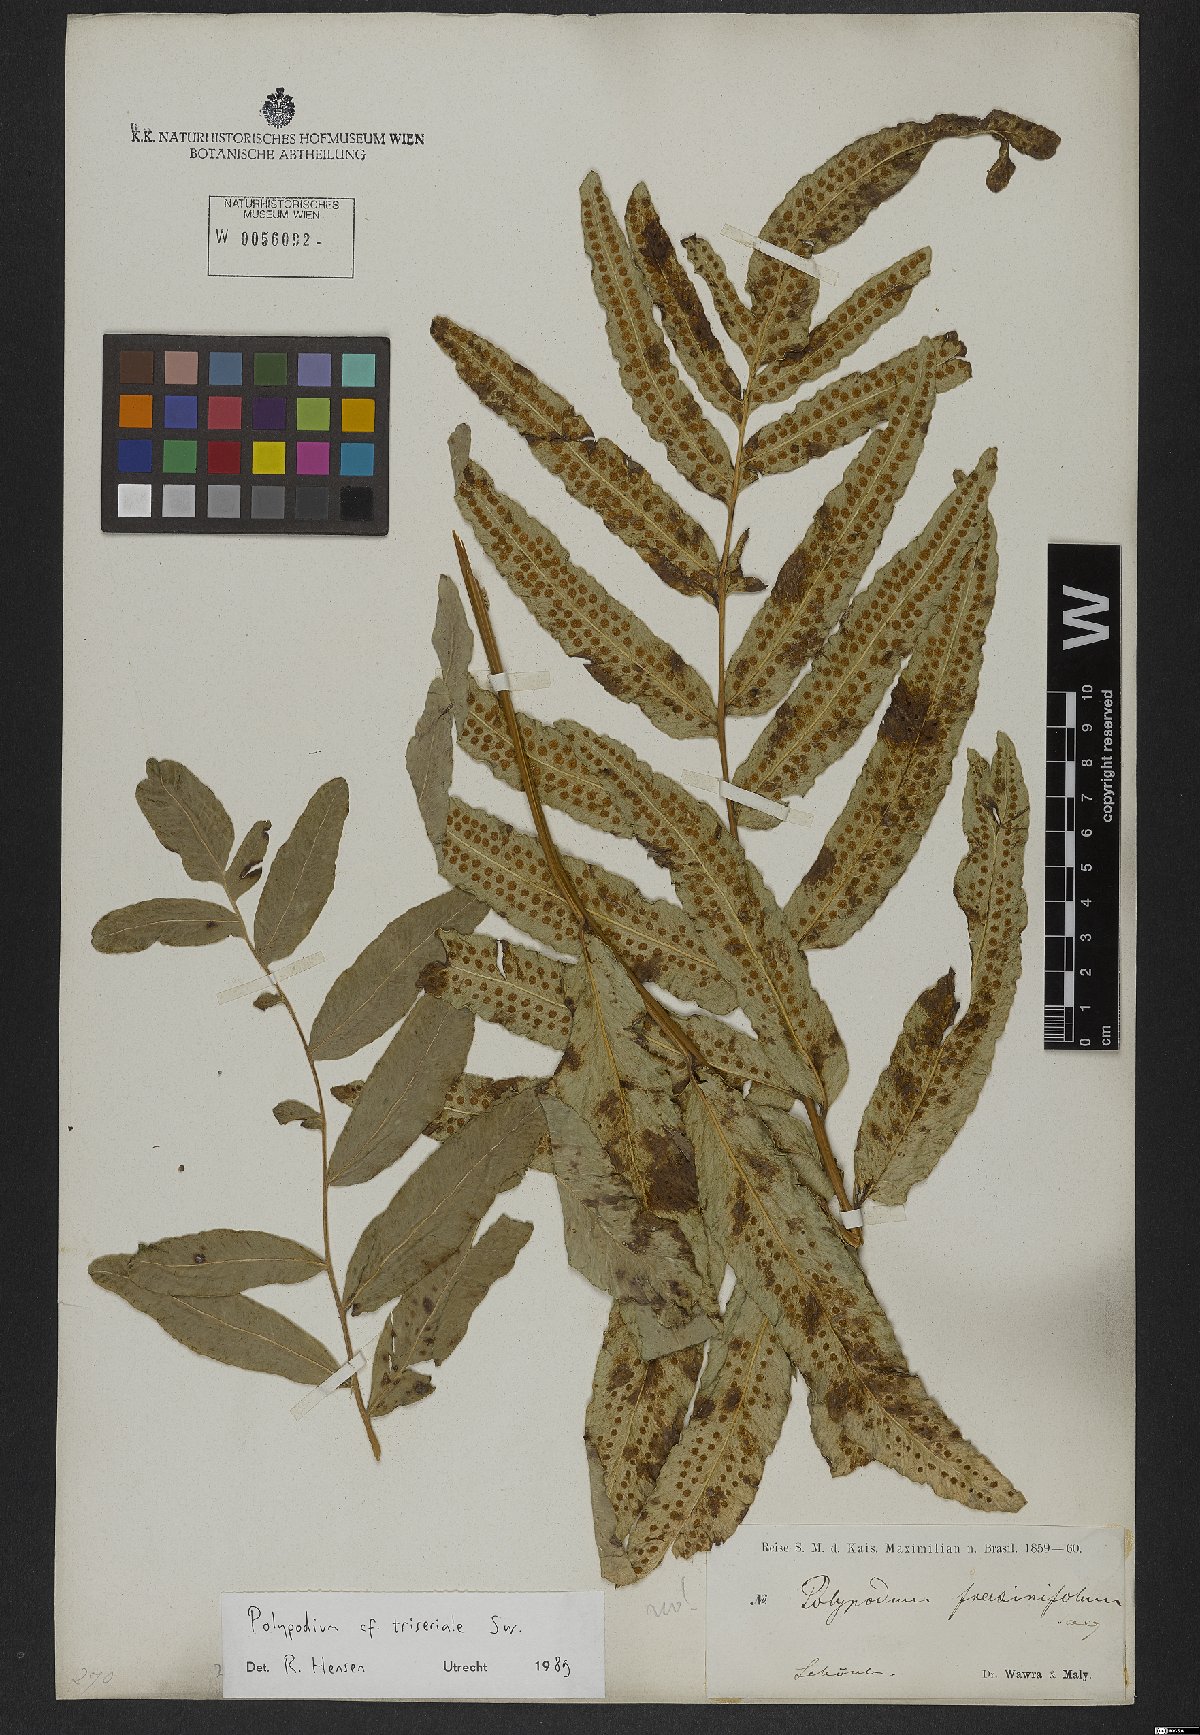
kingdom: Plantae
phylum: Tracheophyta
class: Polypodiopsida
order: Polypodiales
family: Polypodiaceae
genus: Serpocaulon
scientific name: Serpocaulon triseriale
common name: Angle-vein fern
